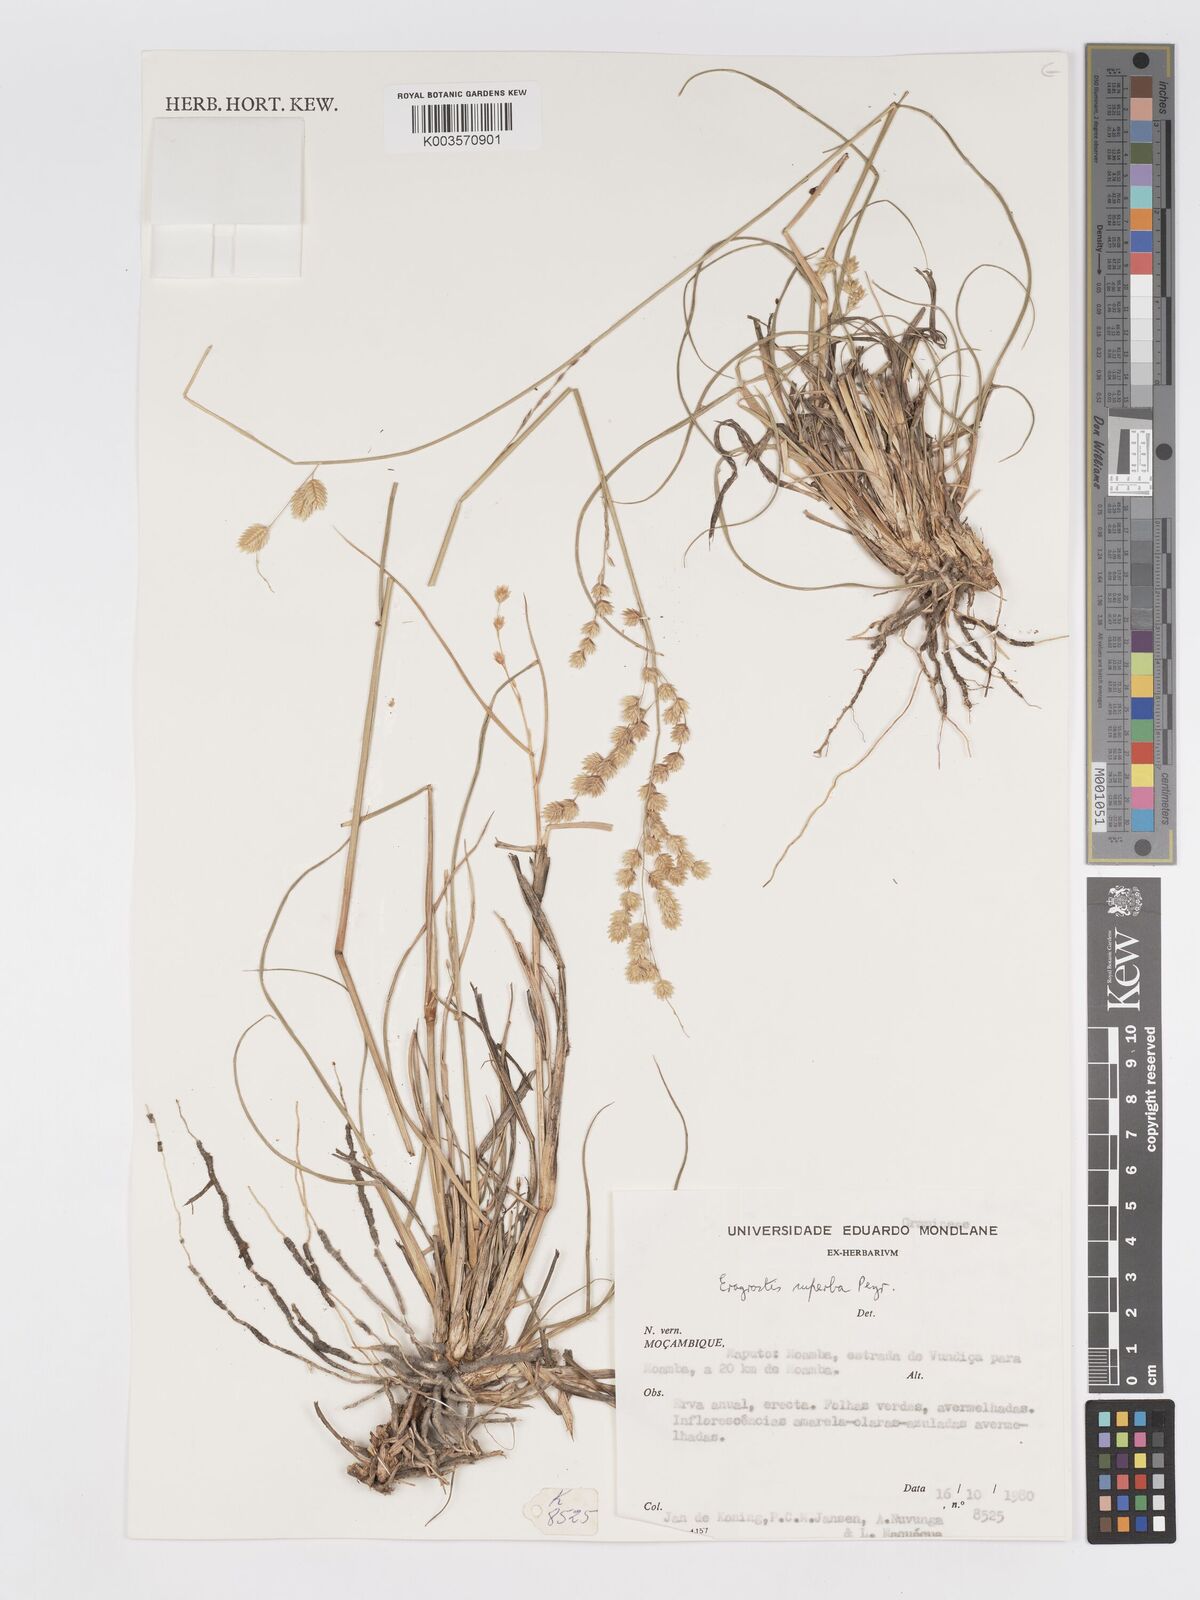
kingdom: Plantae
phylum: Tracheophyta
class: Liliopsida
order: Poales
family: Poaceae
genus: Eragrostis
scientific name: Eragrostis superba
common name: Wilman lovegrass
